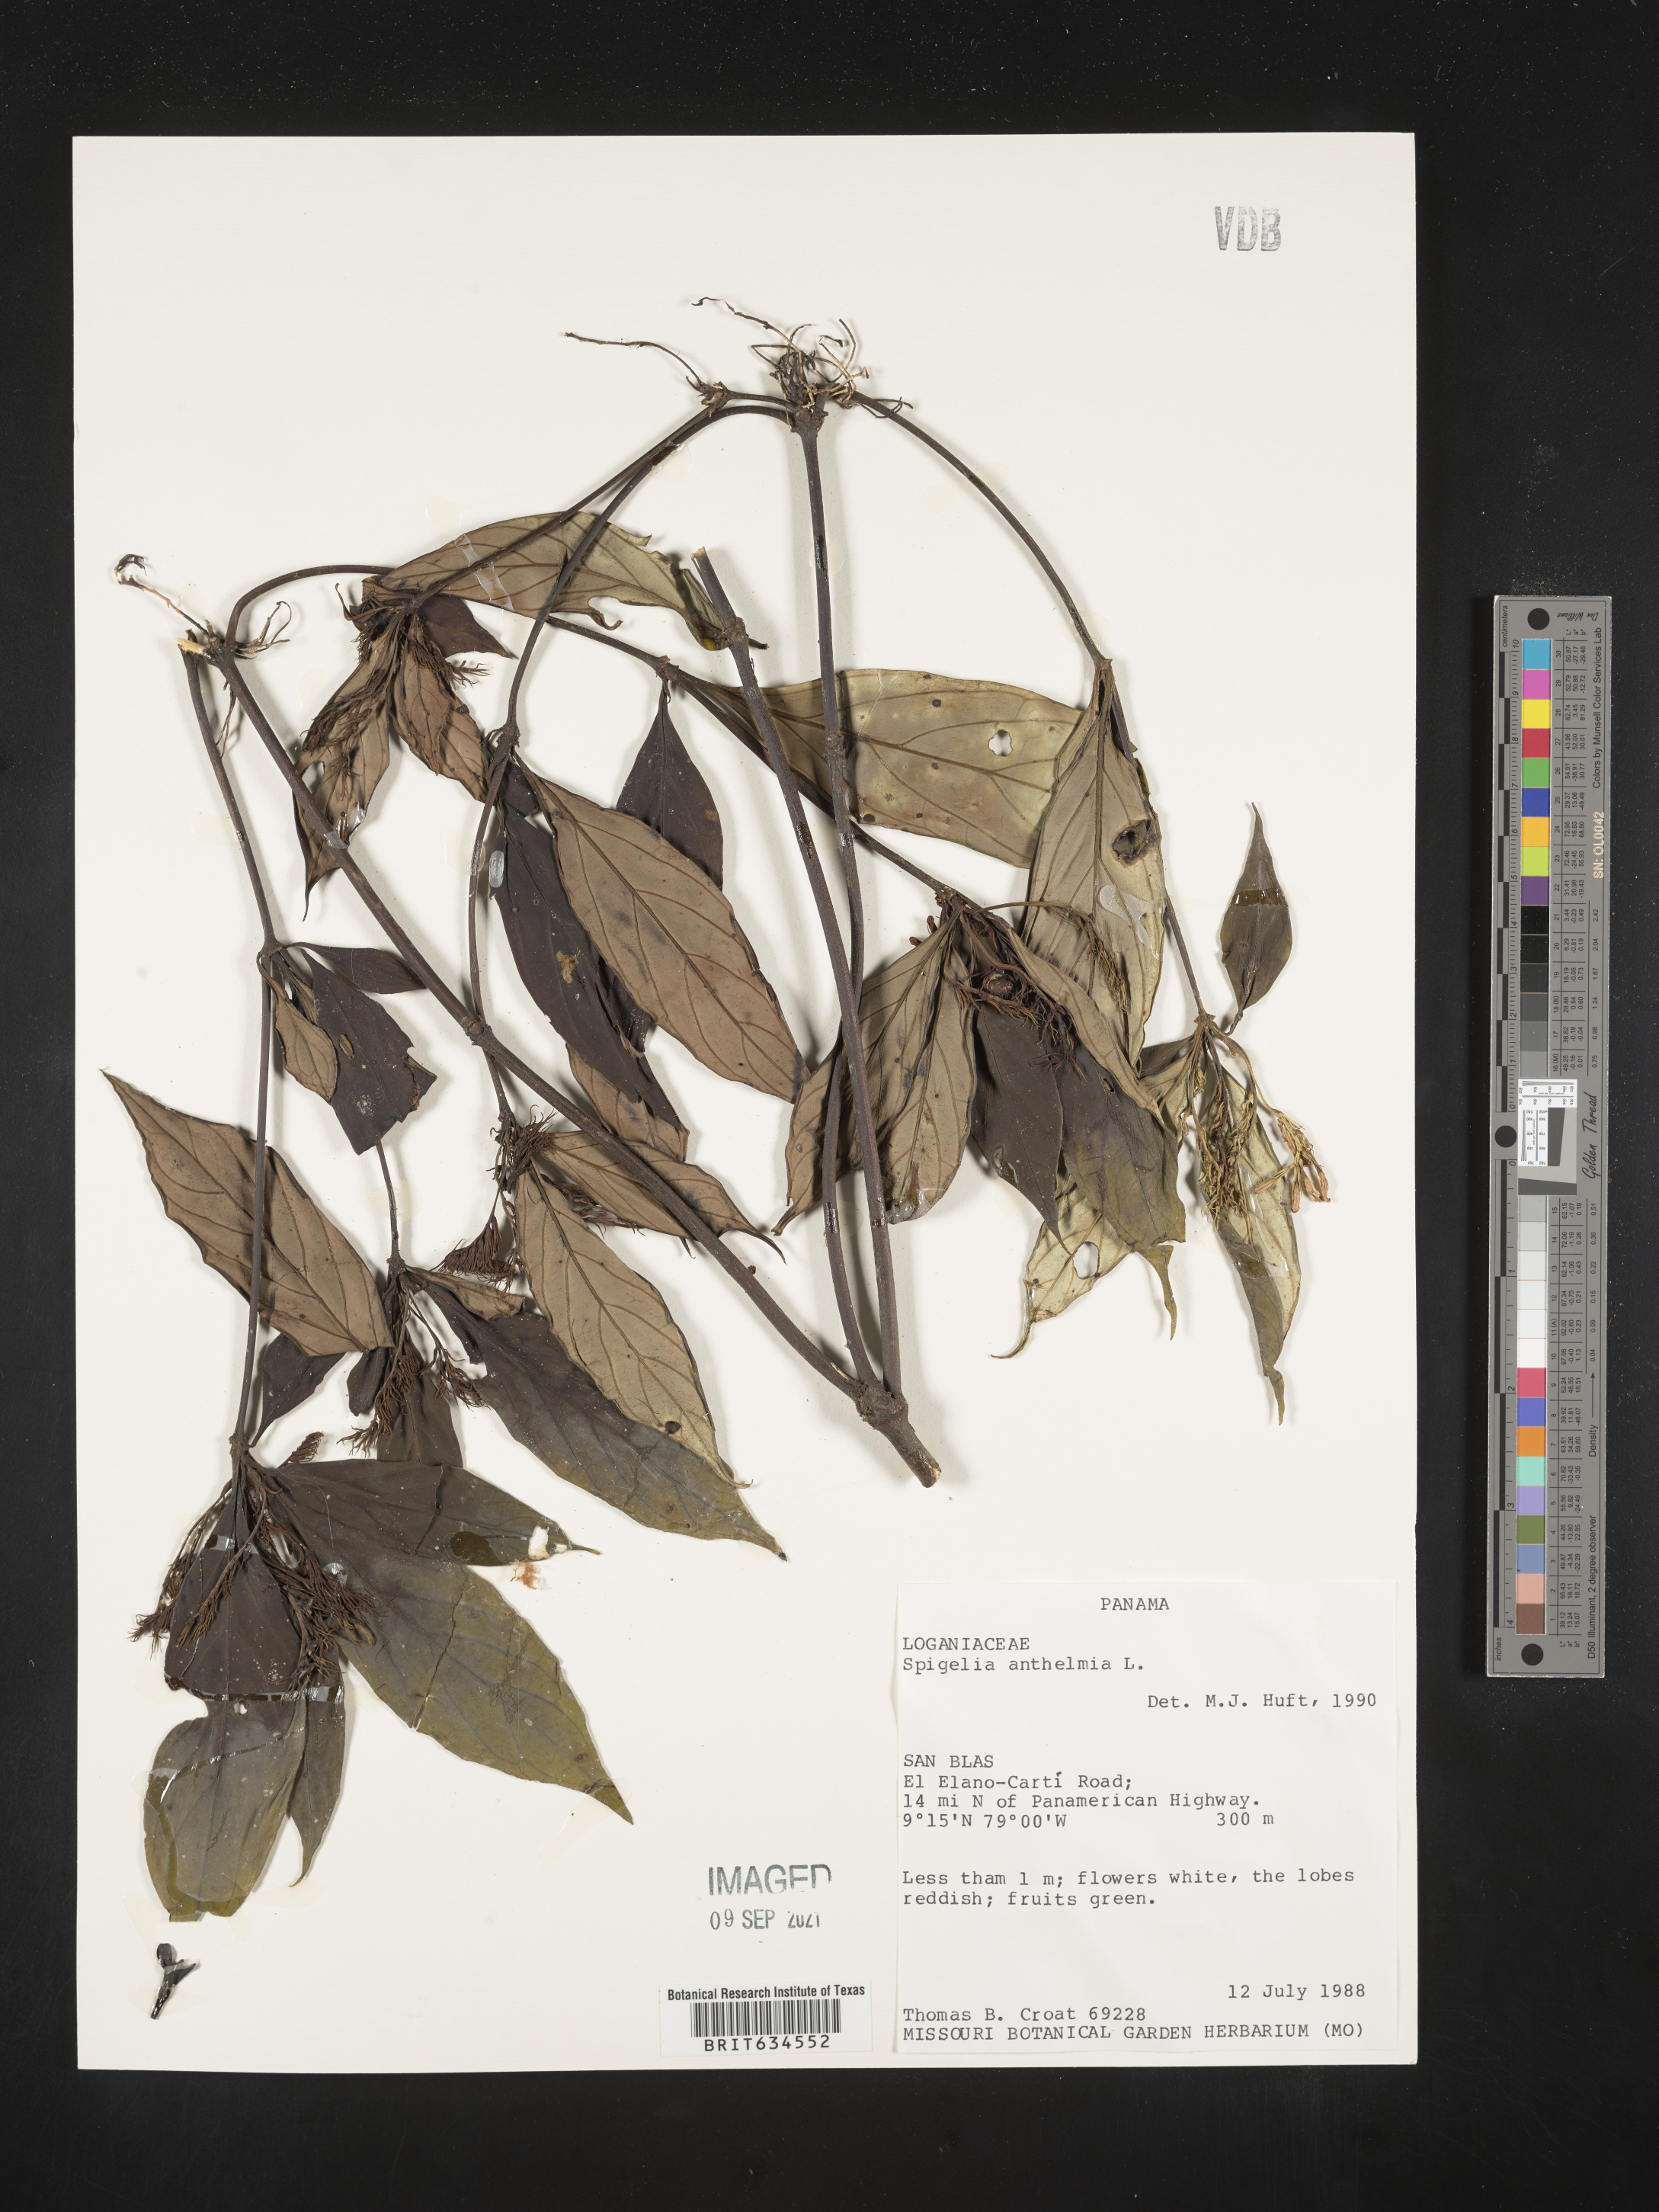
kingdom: Plantae
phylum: Tracheophyta
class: Magnoliopsida
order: Gentianales
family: Loganiaceae
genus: Spigelia
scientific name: Spigelia
